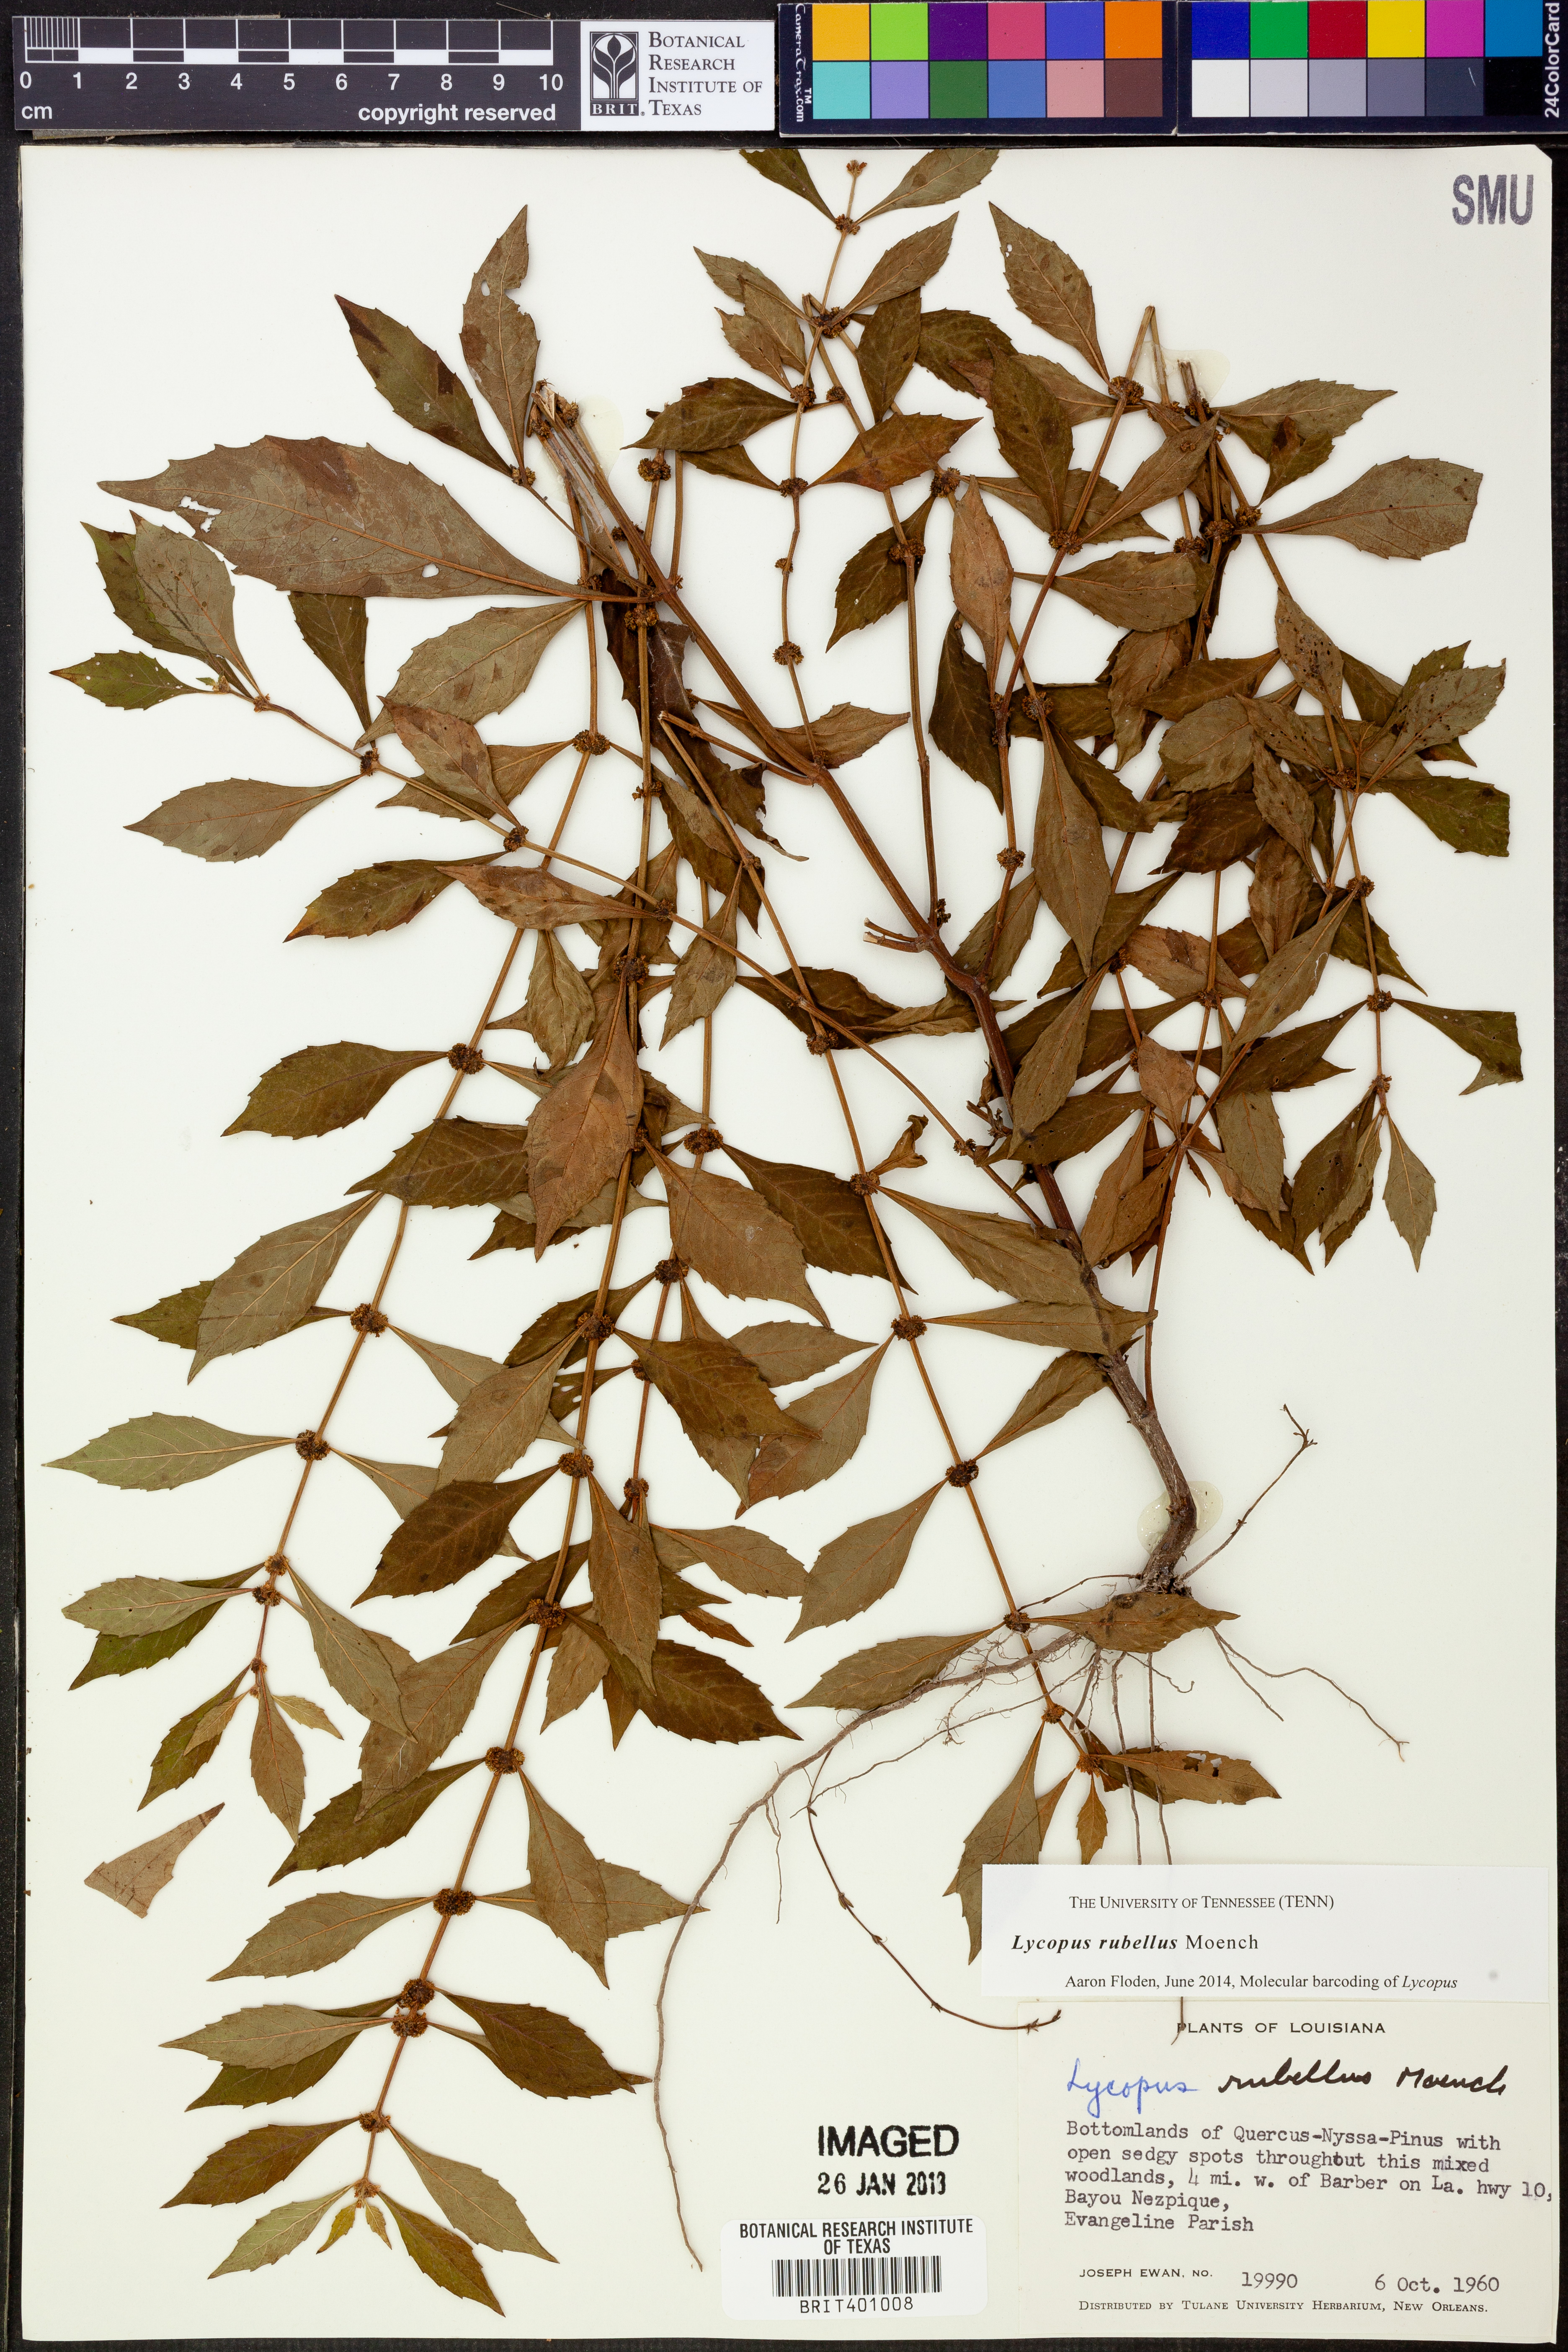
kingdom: Plantae
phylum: Tracheophyta
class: Magnoliopsida
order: Lamiales
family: Lamiaceae
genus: Lycopus
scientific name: Lycopus rubellus
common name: Stalked bugleweed
